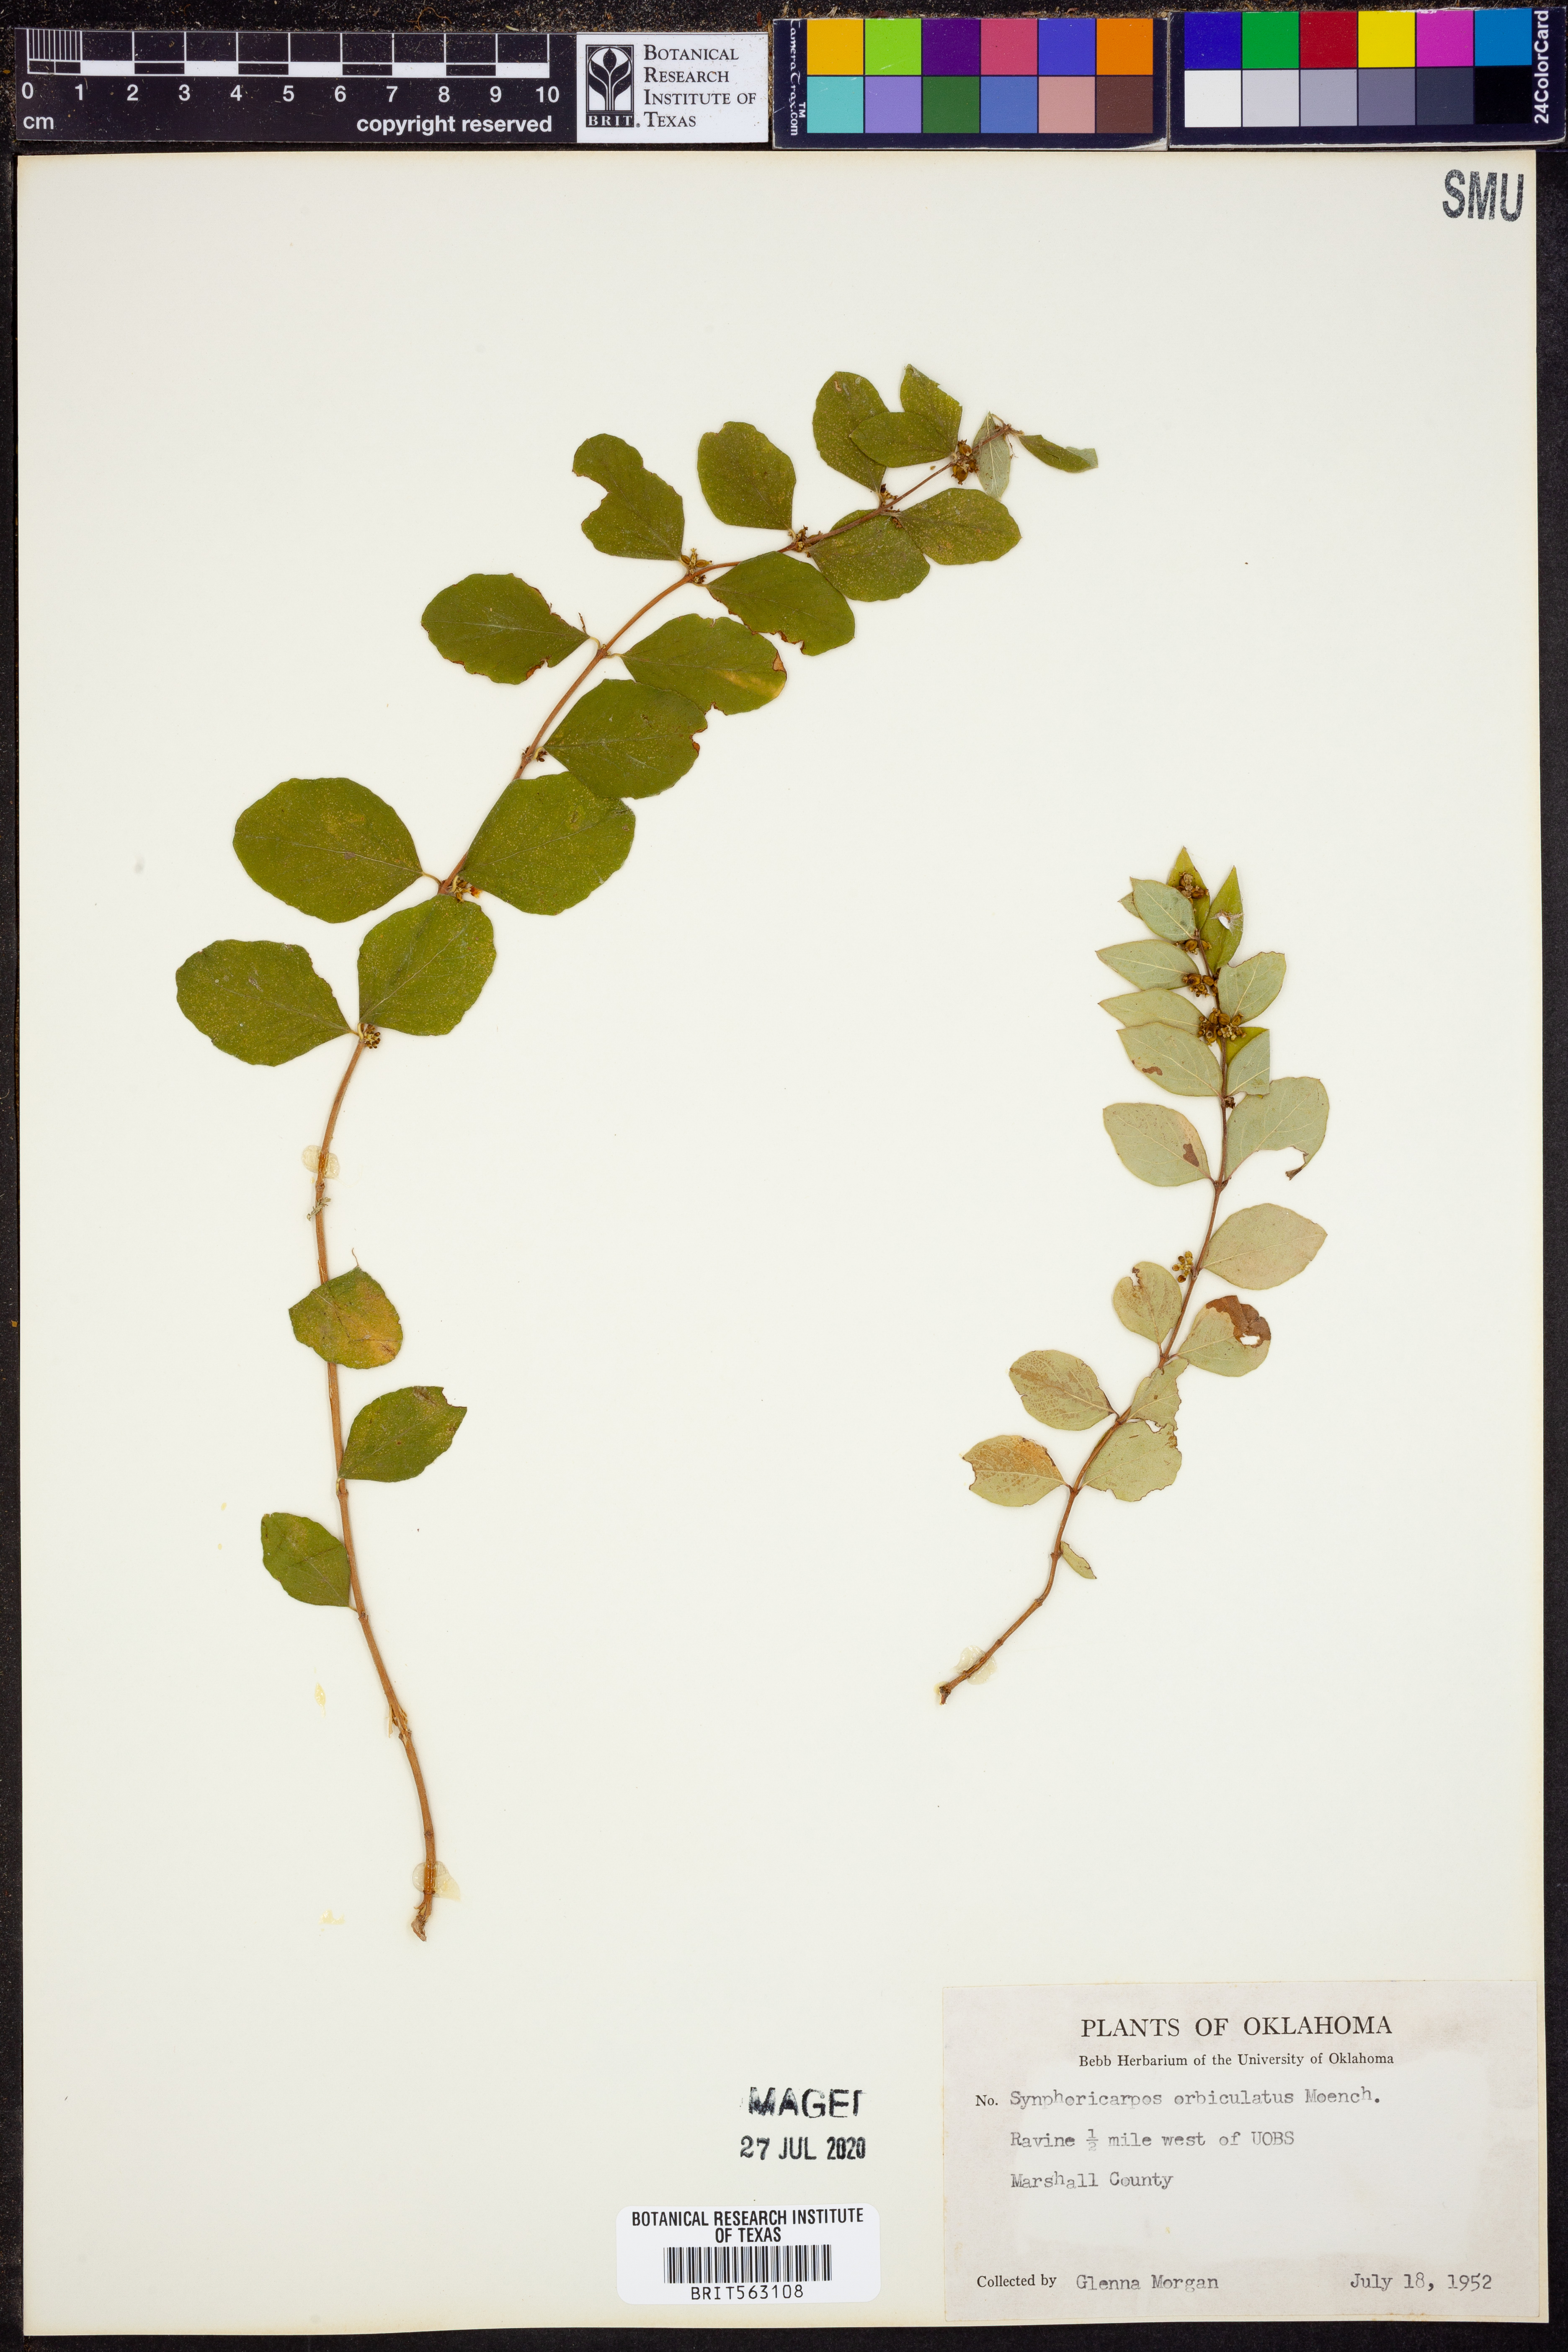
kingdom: Plantae
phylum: Tracheophyta
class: Magnoliopsida
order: Dipsacales
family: Caprifoliaceae
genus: Symphoricarpos
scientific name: Symphoricarpos orbiculatus
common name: Coralberry
